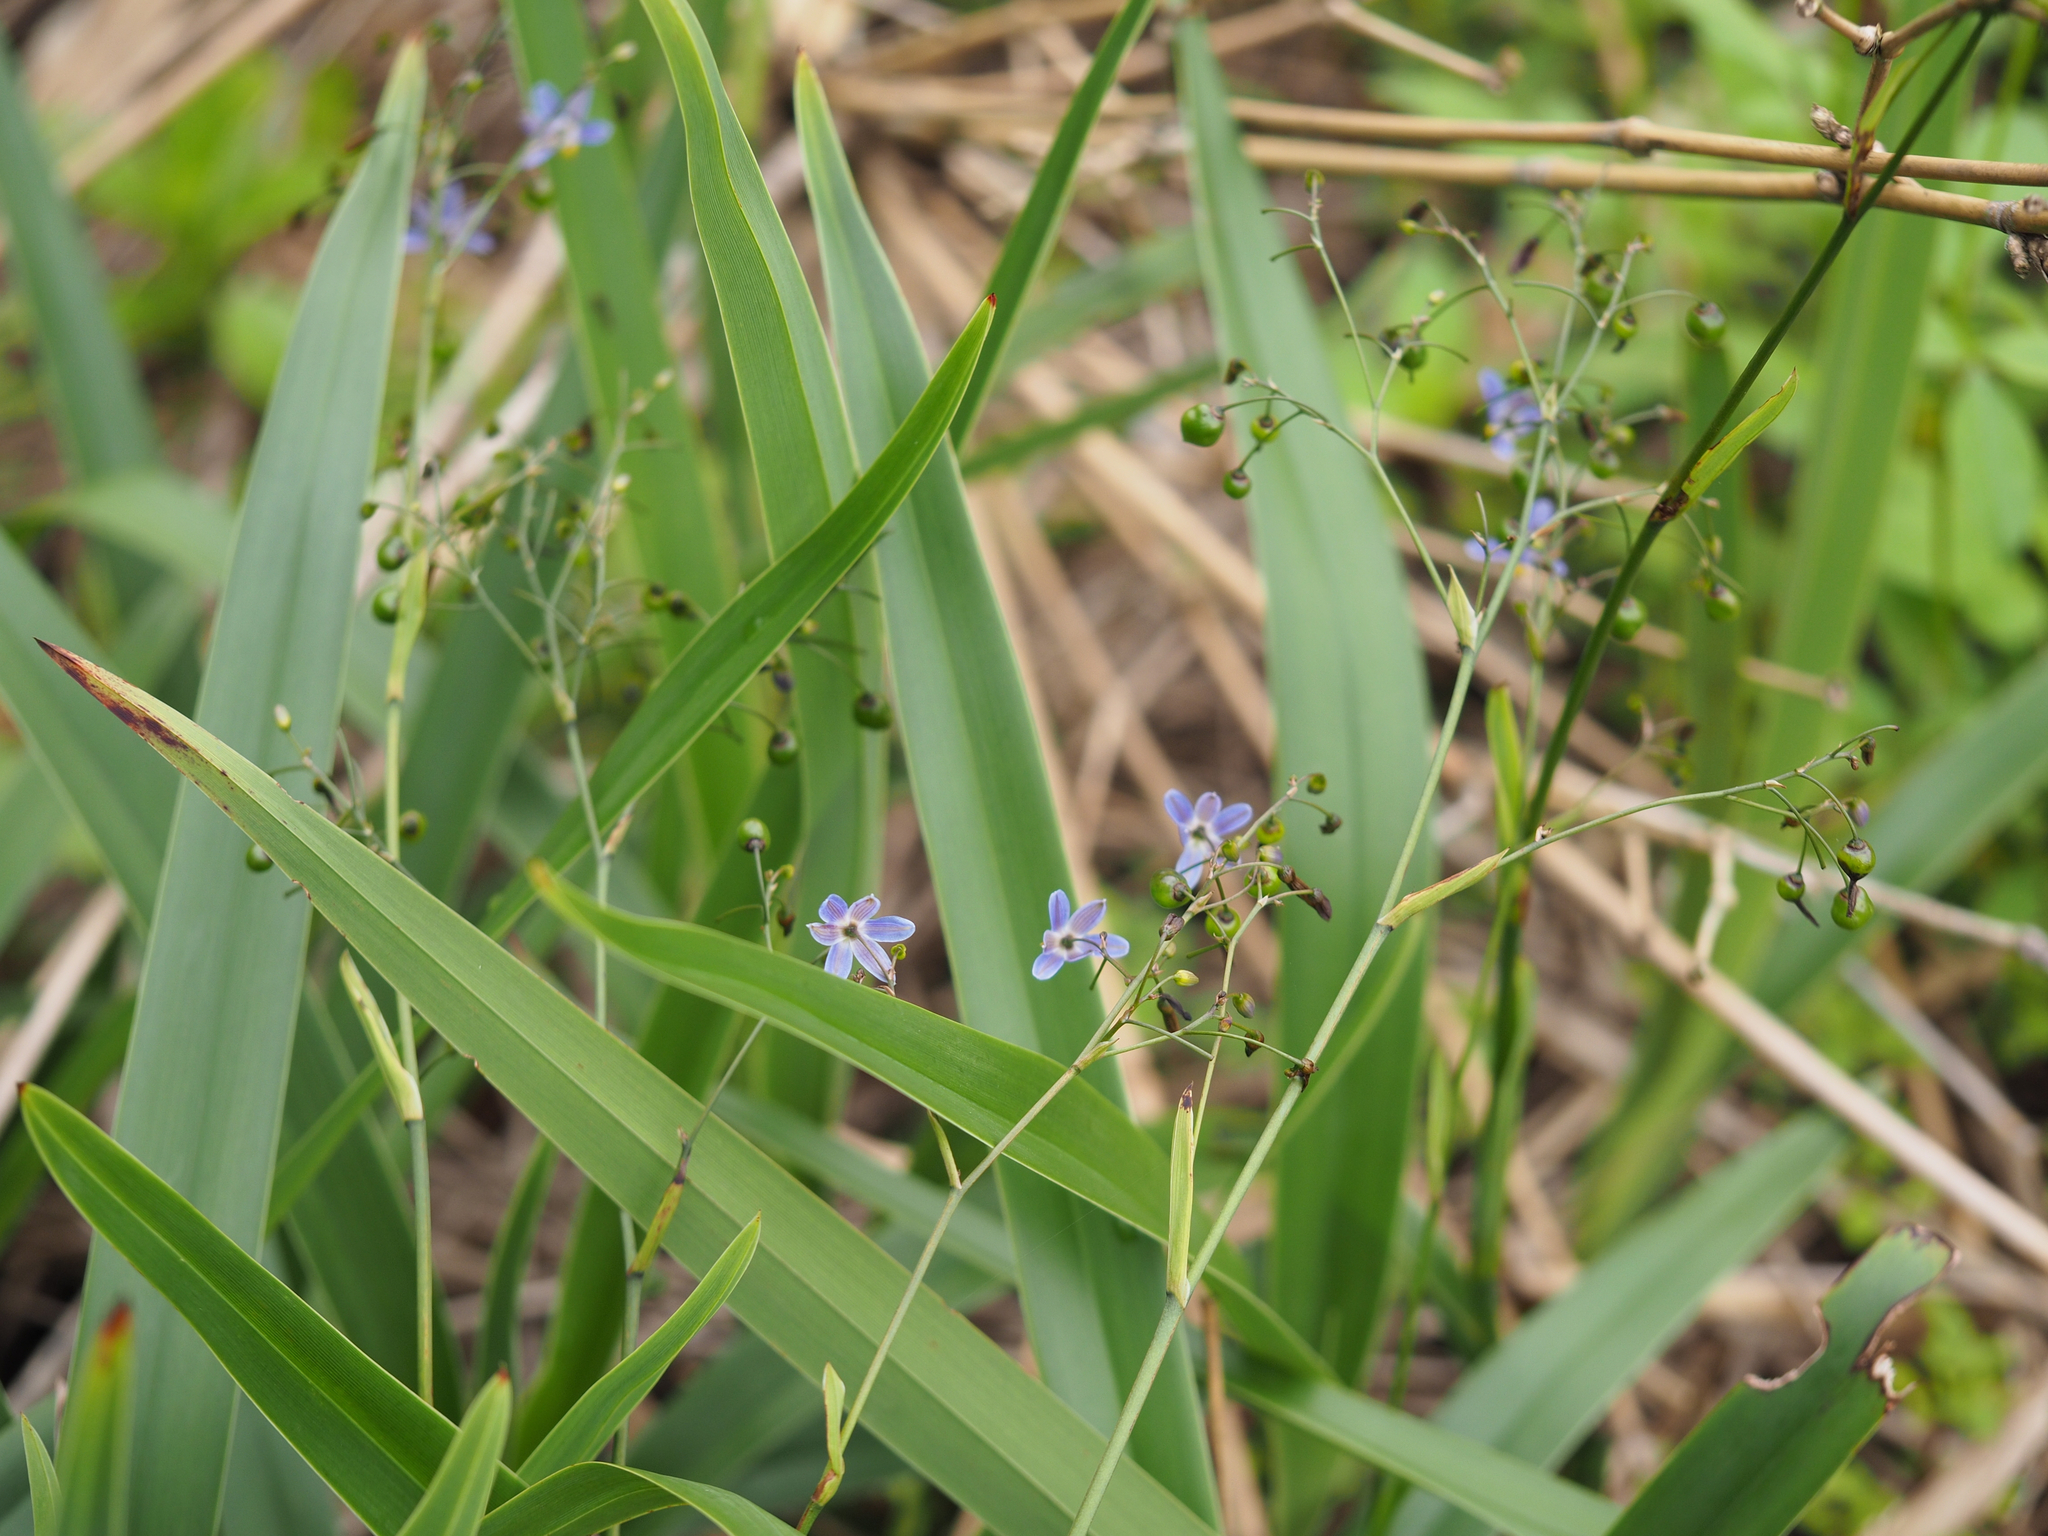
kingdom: Plantae
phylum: Tracheophyta
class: Liliopsida
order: Asparagales
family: Asphodelaceae
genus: Dianella
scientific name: Dianella ensifolia
